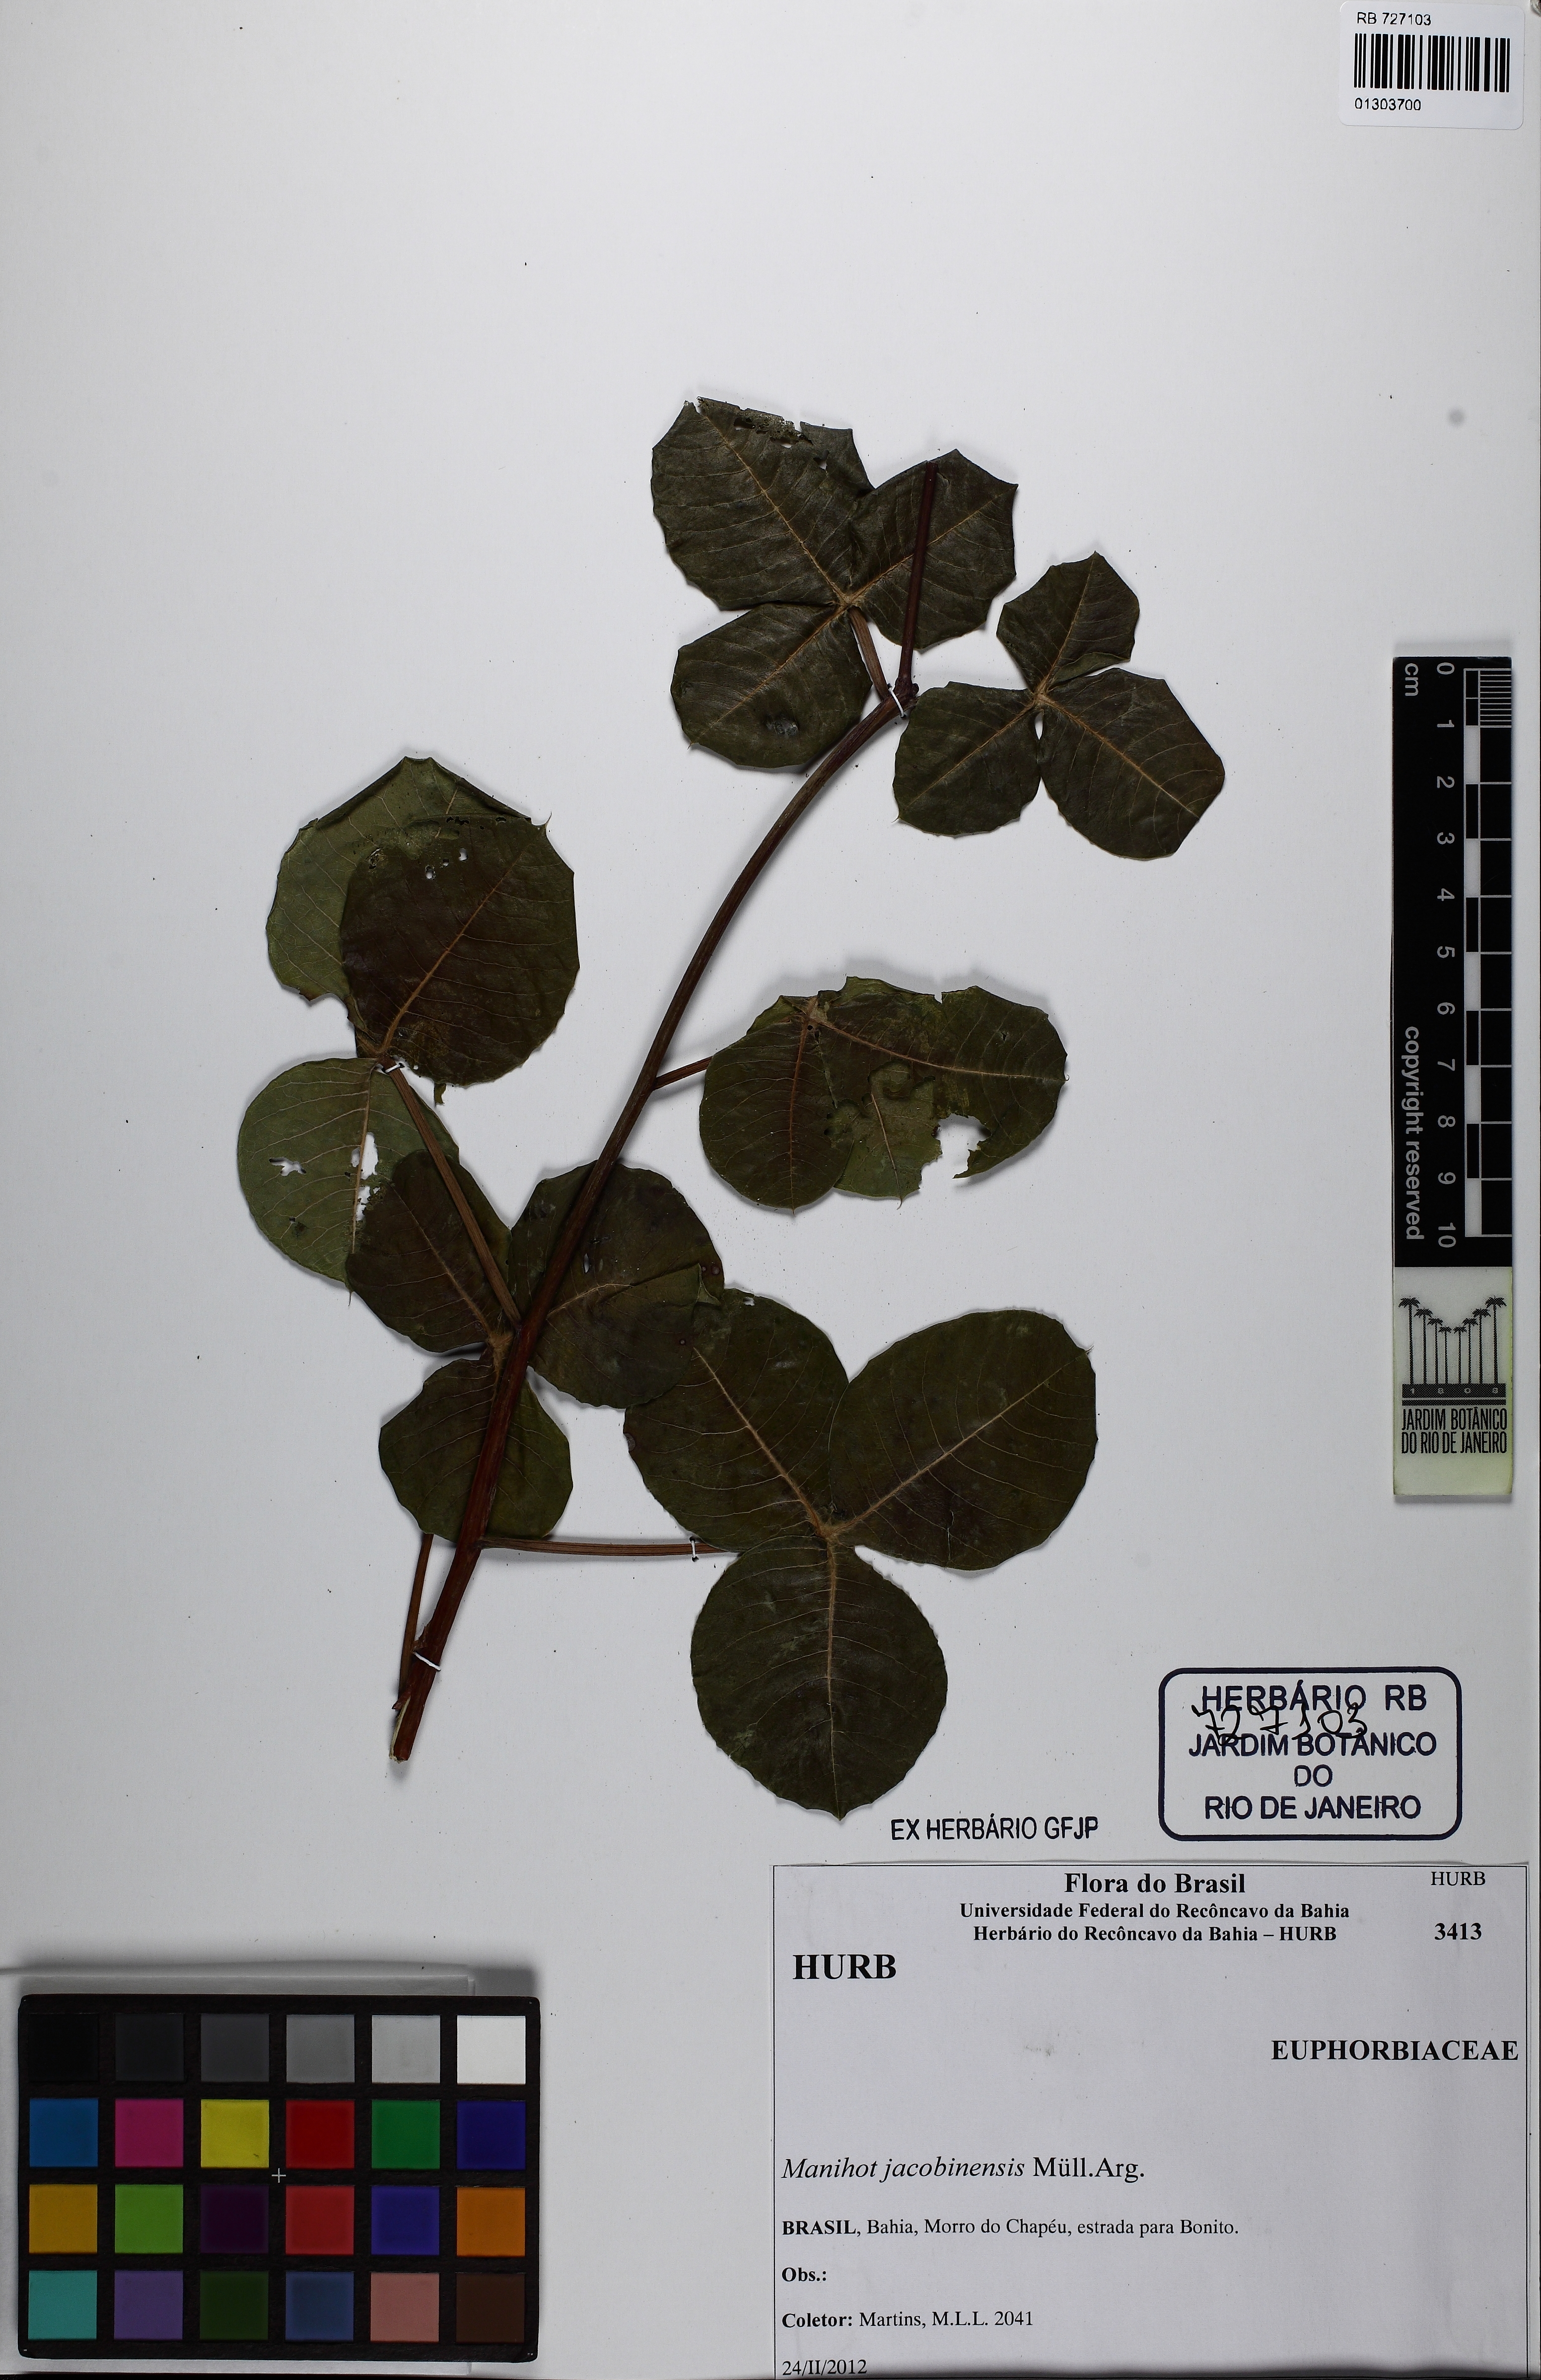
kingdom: Plantae
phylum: Tracheophyta
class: Magnoliopsida
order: Malpighiales
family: Euphorbiaceae
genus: Manihot
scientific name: Manihot jacobinensis
